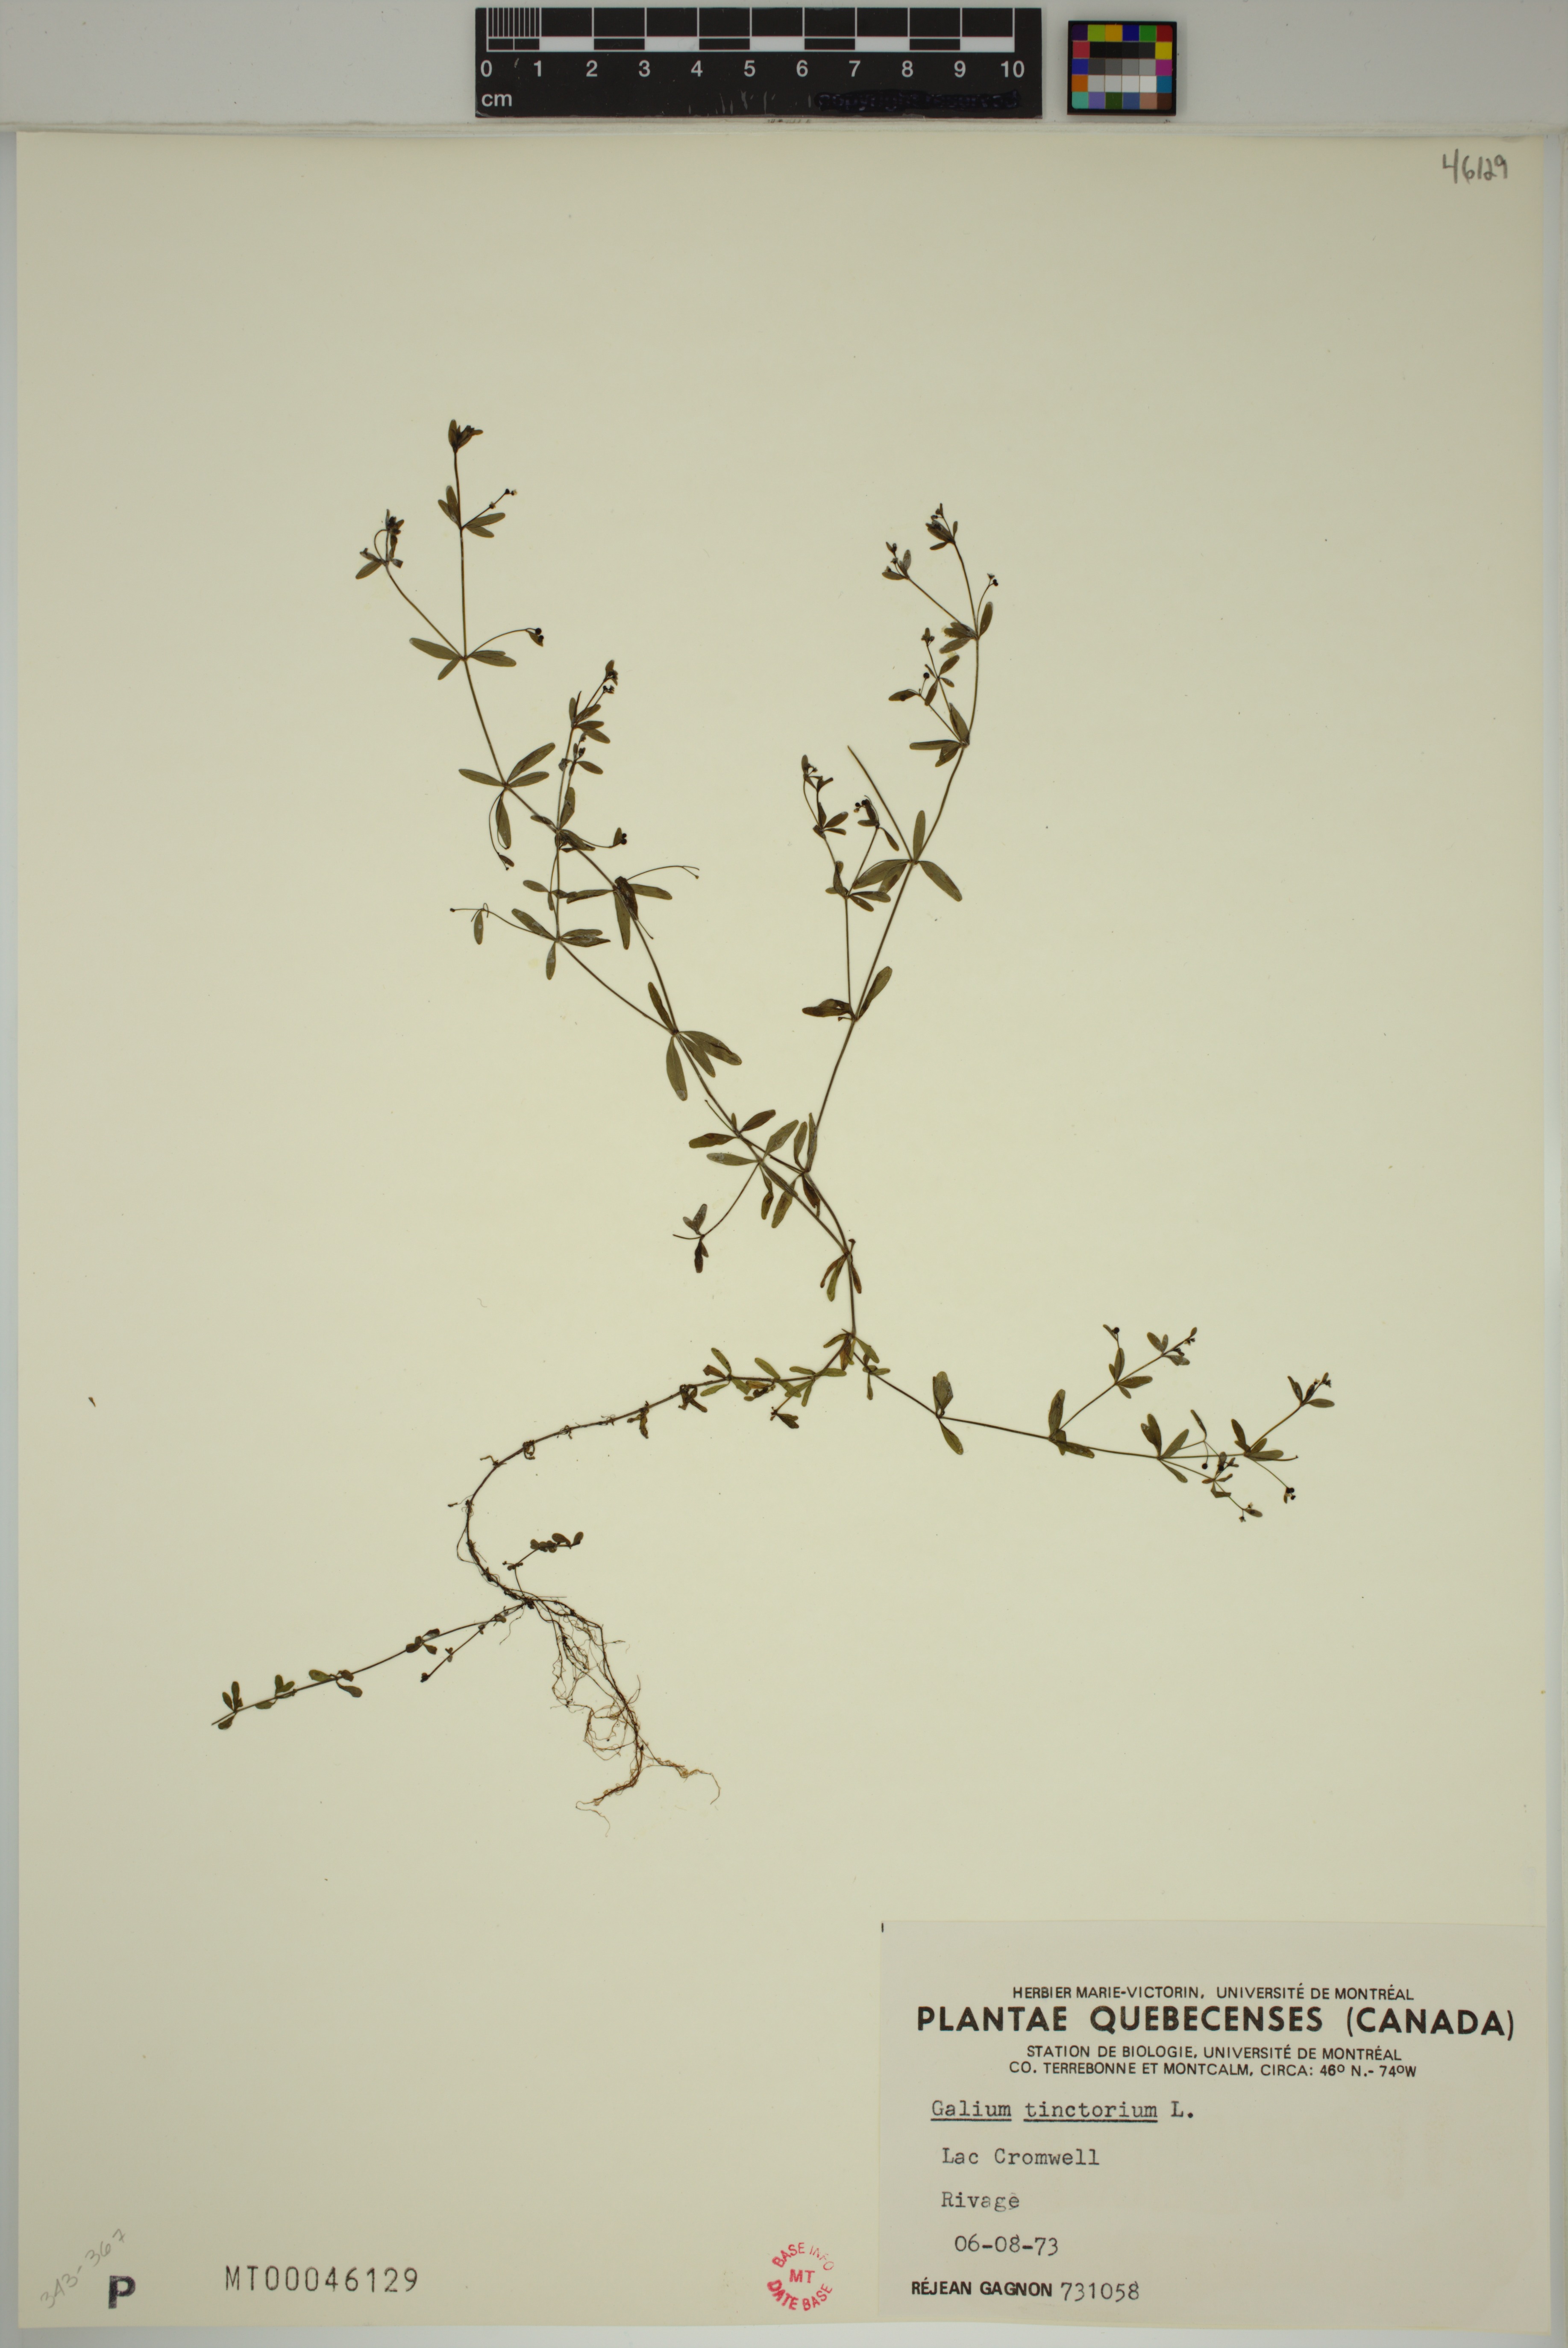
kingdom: Plantae
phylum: Tracheophyta
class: Magnoliopsida
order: Gentianales
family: Rubiaceae
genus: Galium
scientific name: Galium tinctorium
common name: Bedstraw
